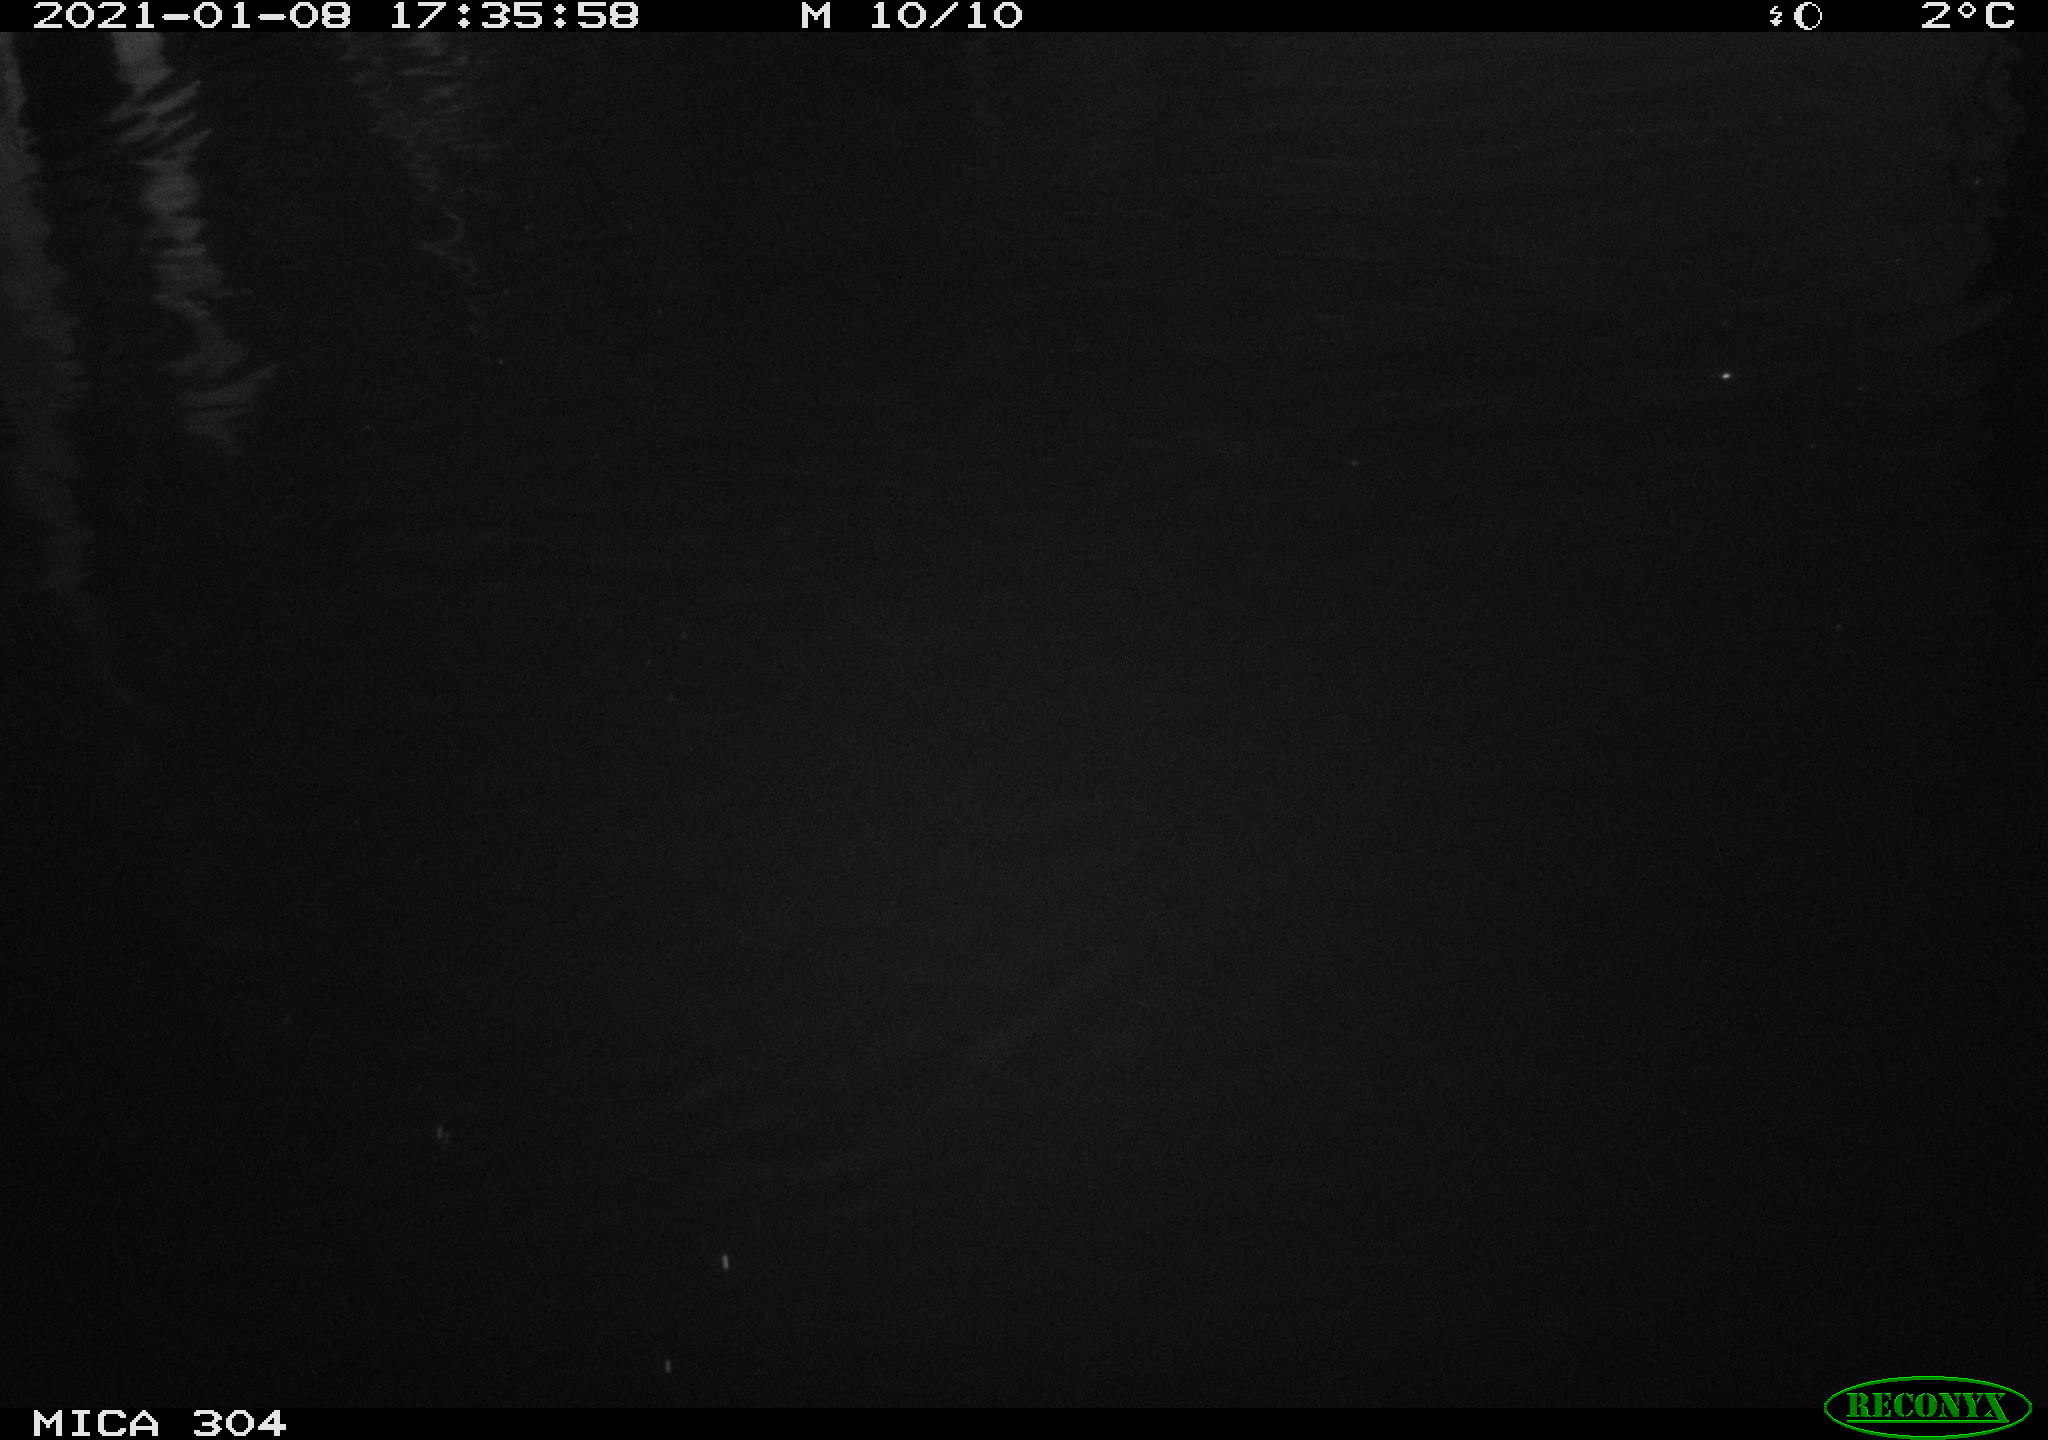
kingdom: Animalia
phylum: Chordata
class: Aves
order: Anseriformes
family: Anatidae
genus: Anas
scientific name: Anas platyrhynchos
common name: Mallard
